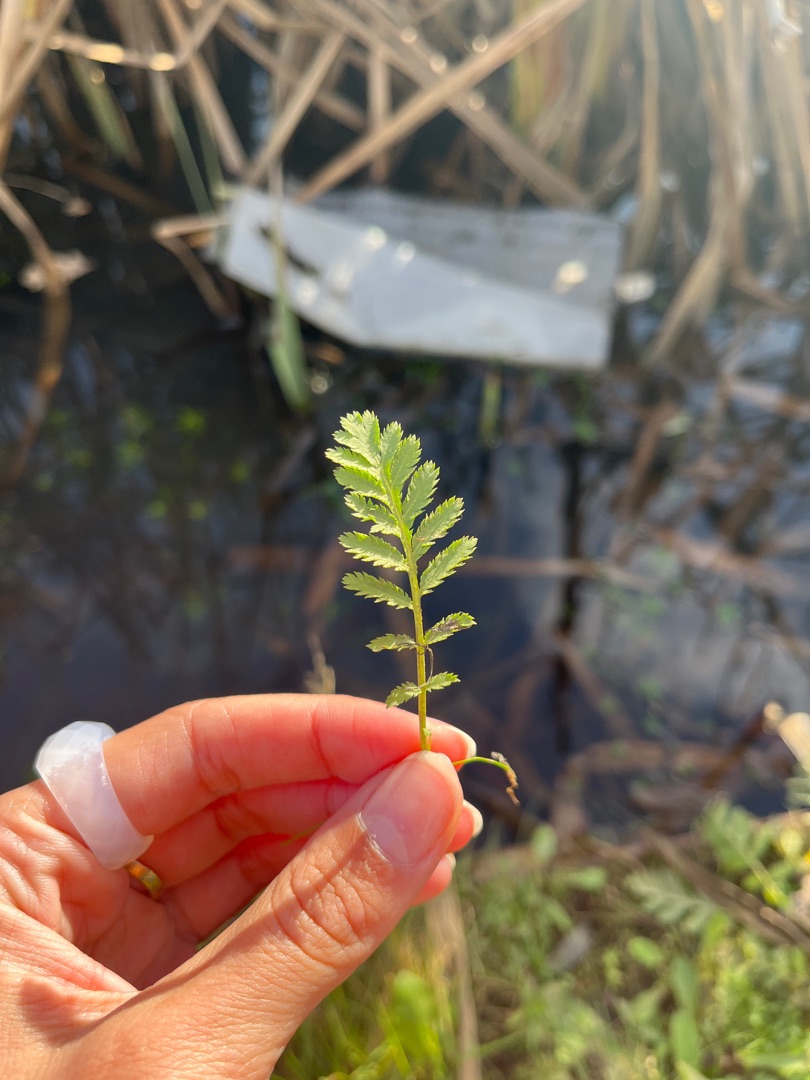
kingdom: Plantae
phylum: Tracheophyta
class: Magnoliopsida
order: Asterales
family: Asteraceae
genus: Tanacetum
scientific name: Tanacetum vulgare
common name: Rejnfan
